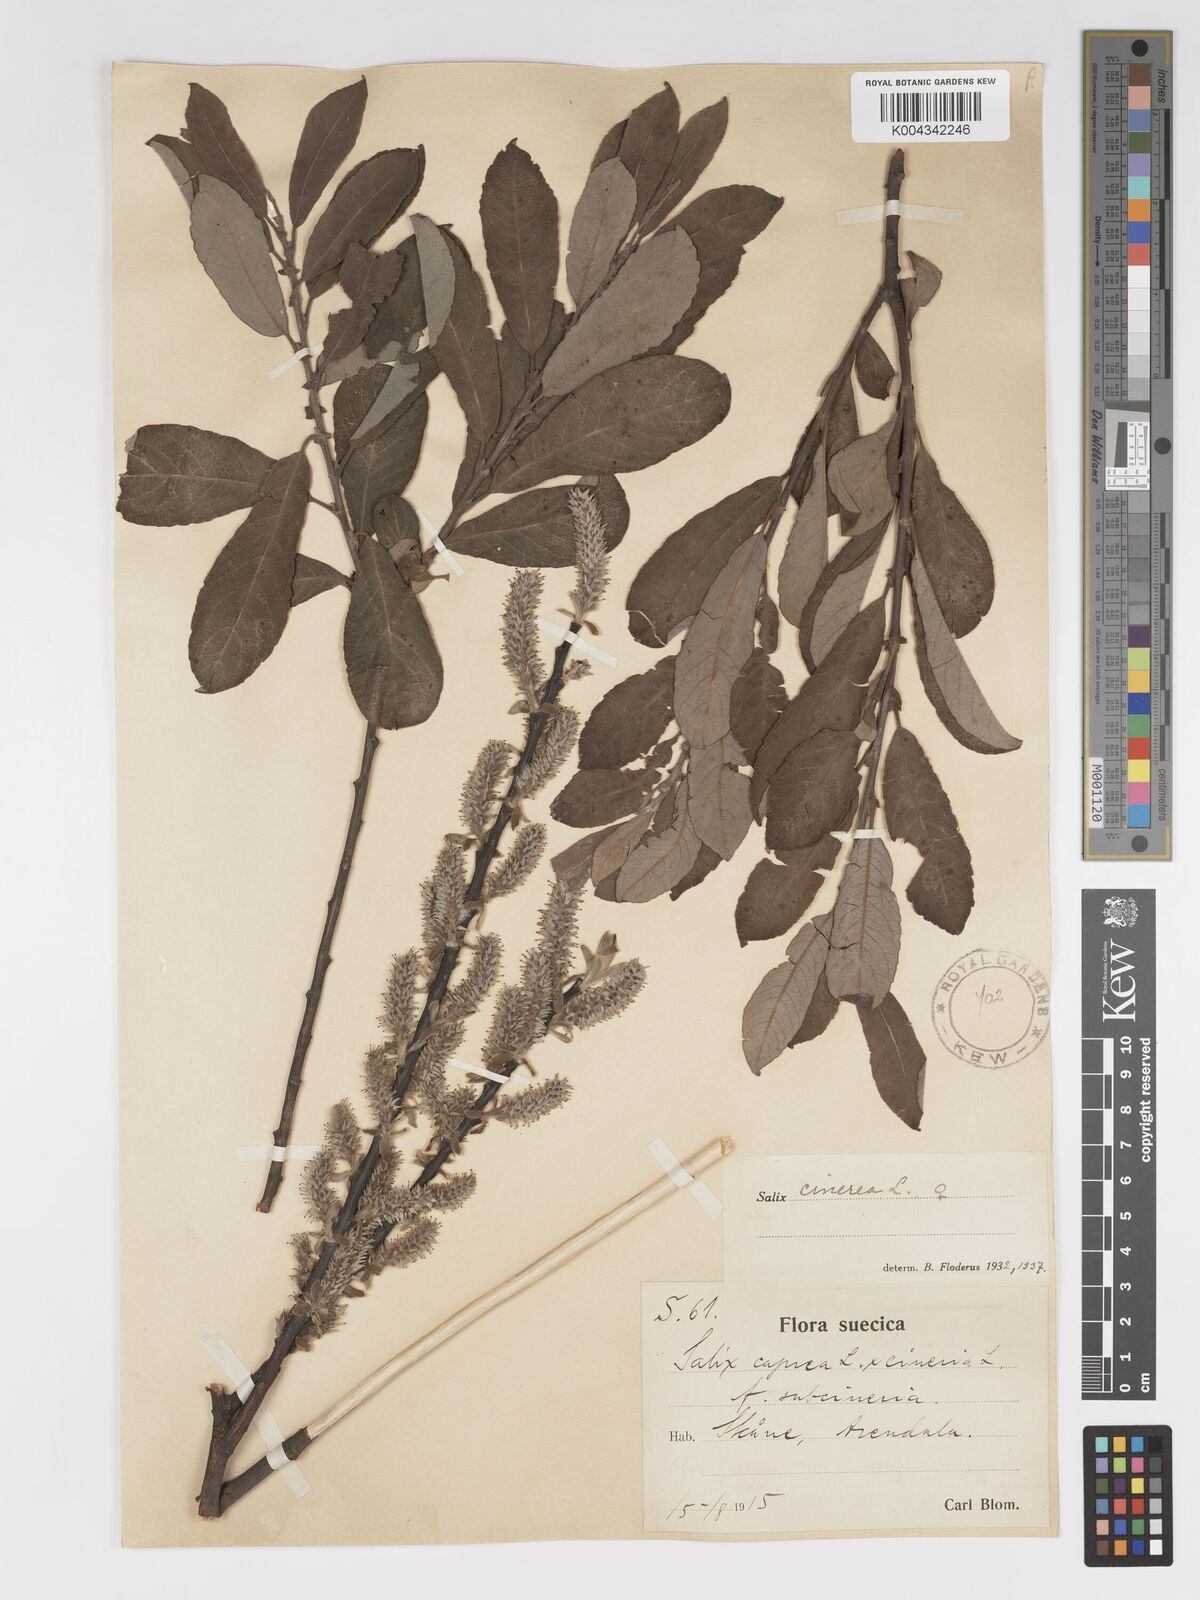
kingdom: Plantae
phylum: Tracheophyta
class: Magnoliopsida
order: Malpighiales
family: Salicaceae
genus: Salix
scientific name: Salix
